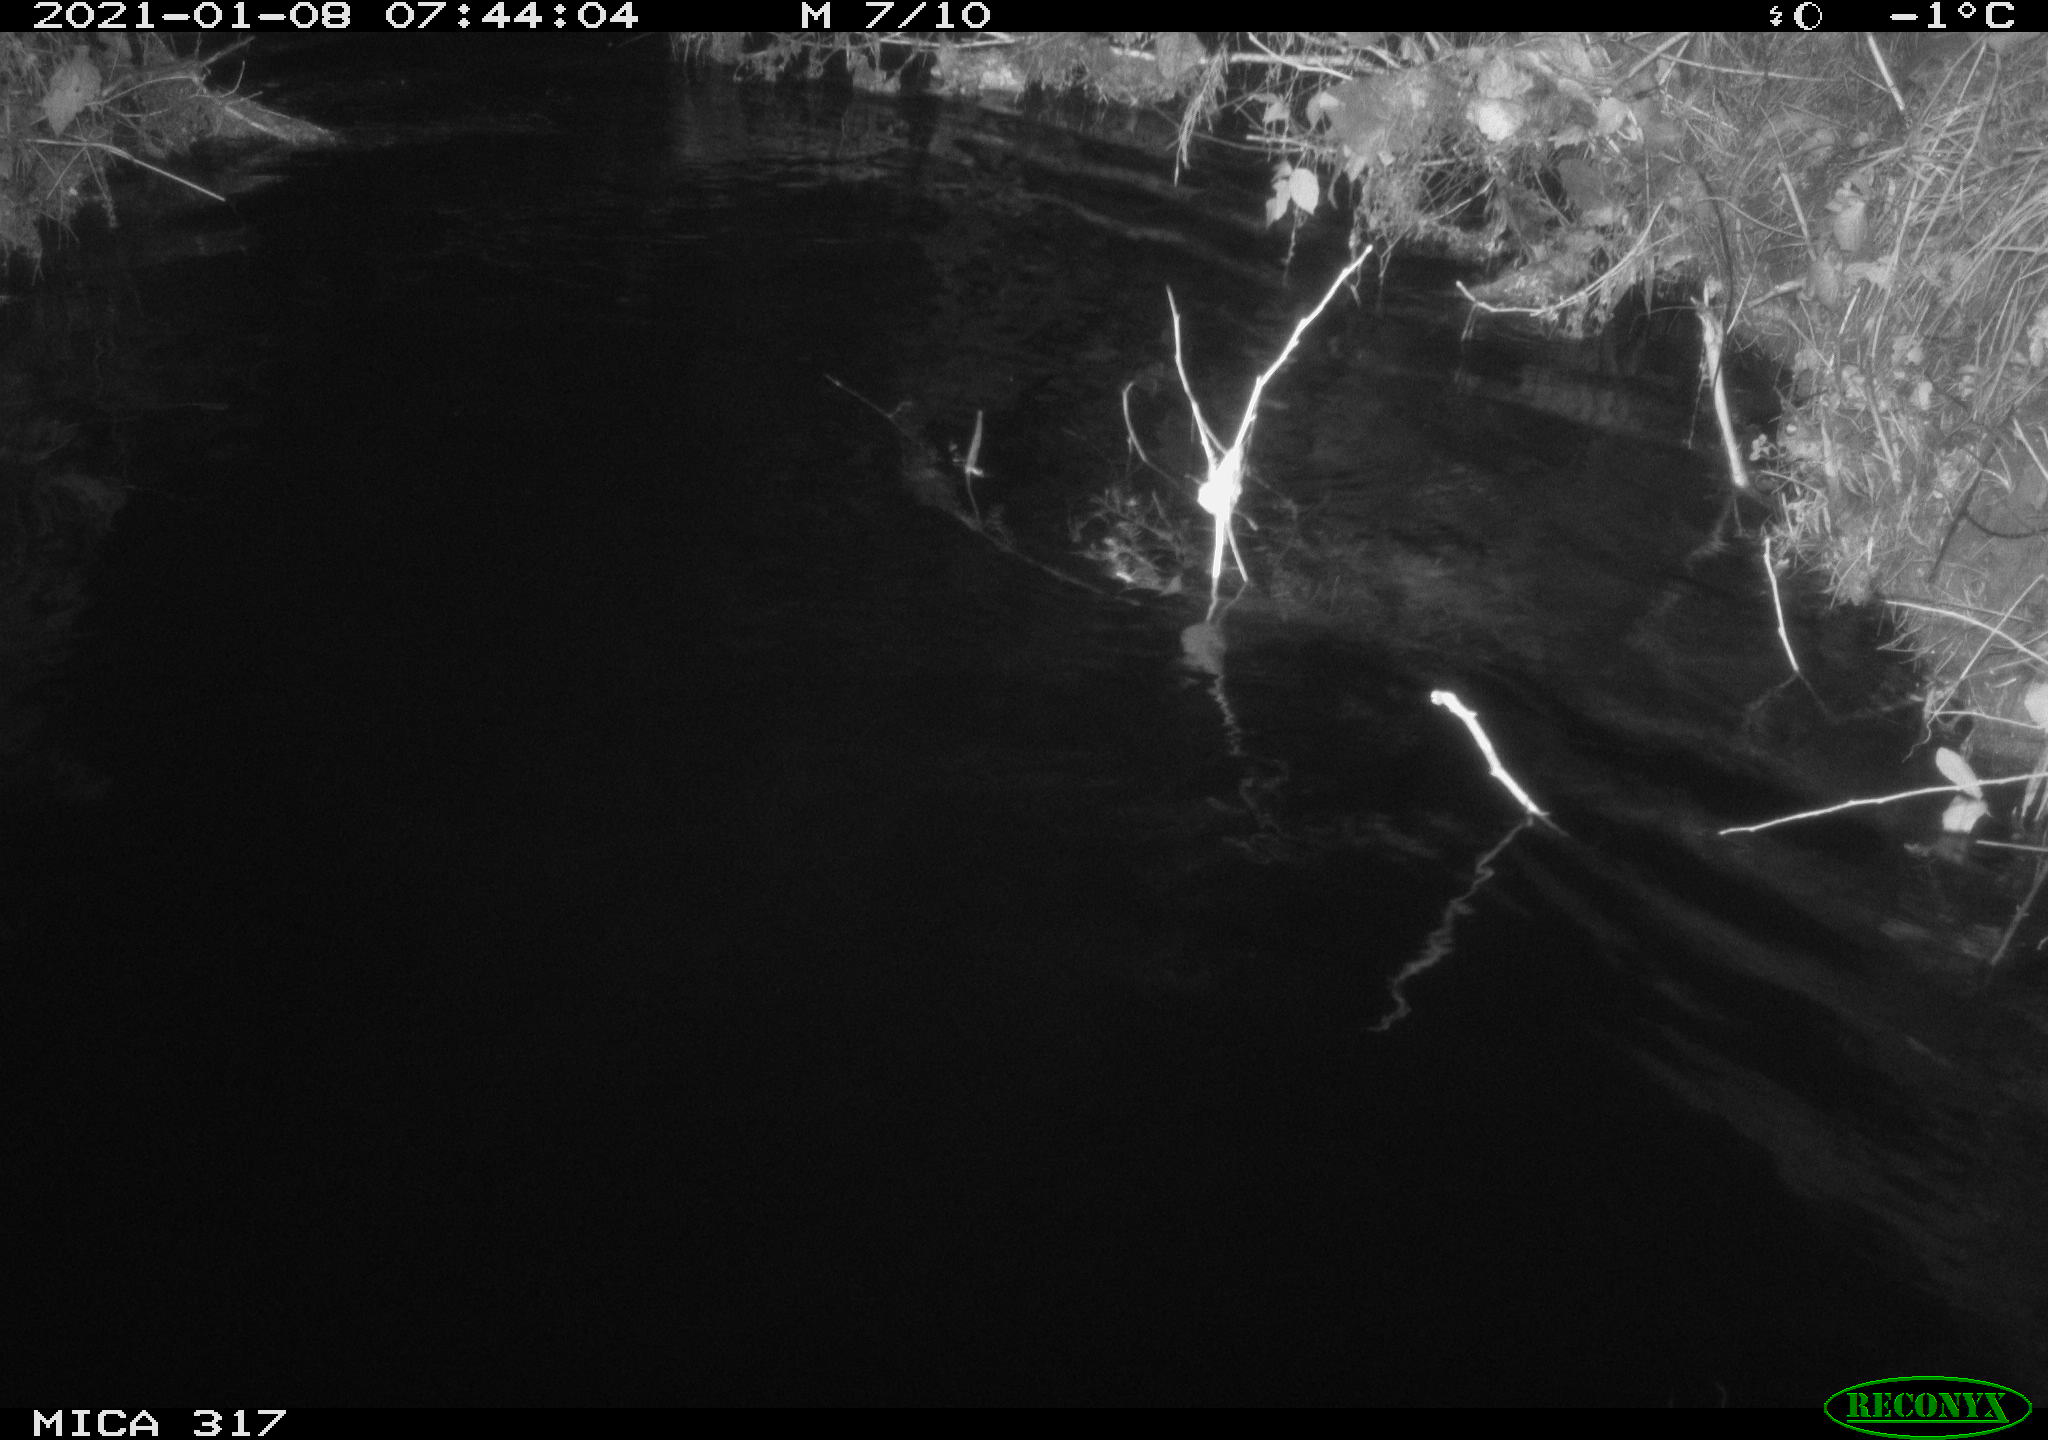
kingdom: Animalia
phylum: Chordata
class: Aves
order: Anseriformes
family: Anatidae
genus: Anas
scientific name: Anas platyrhynchos
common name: Mallard
